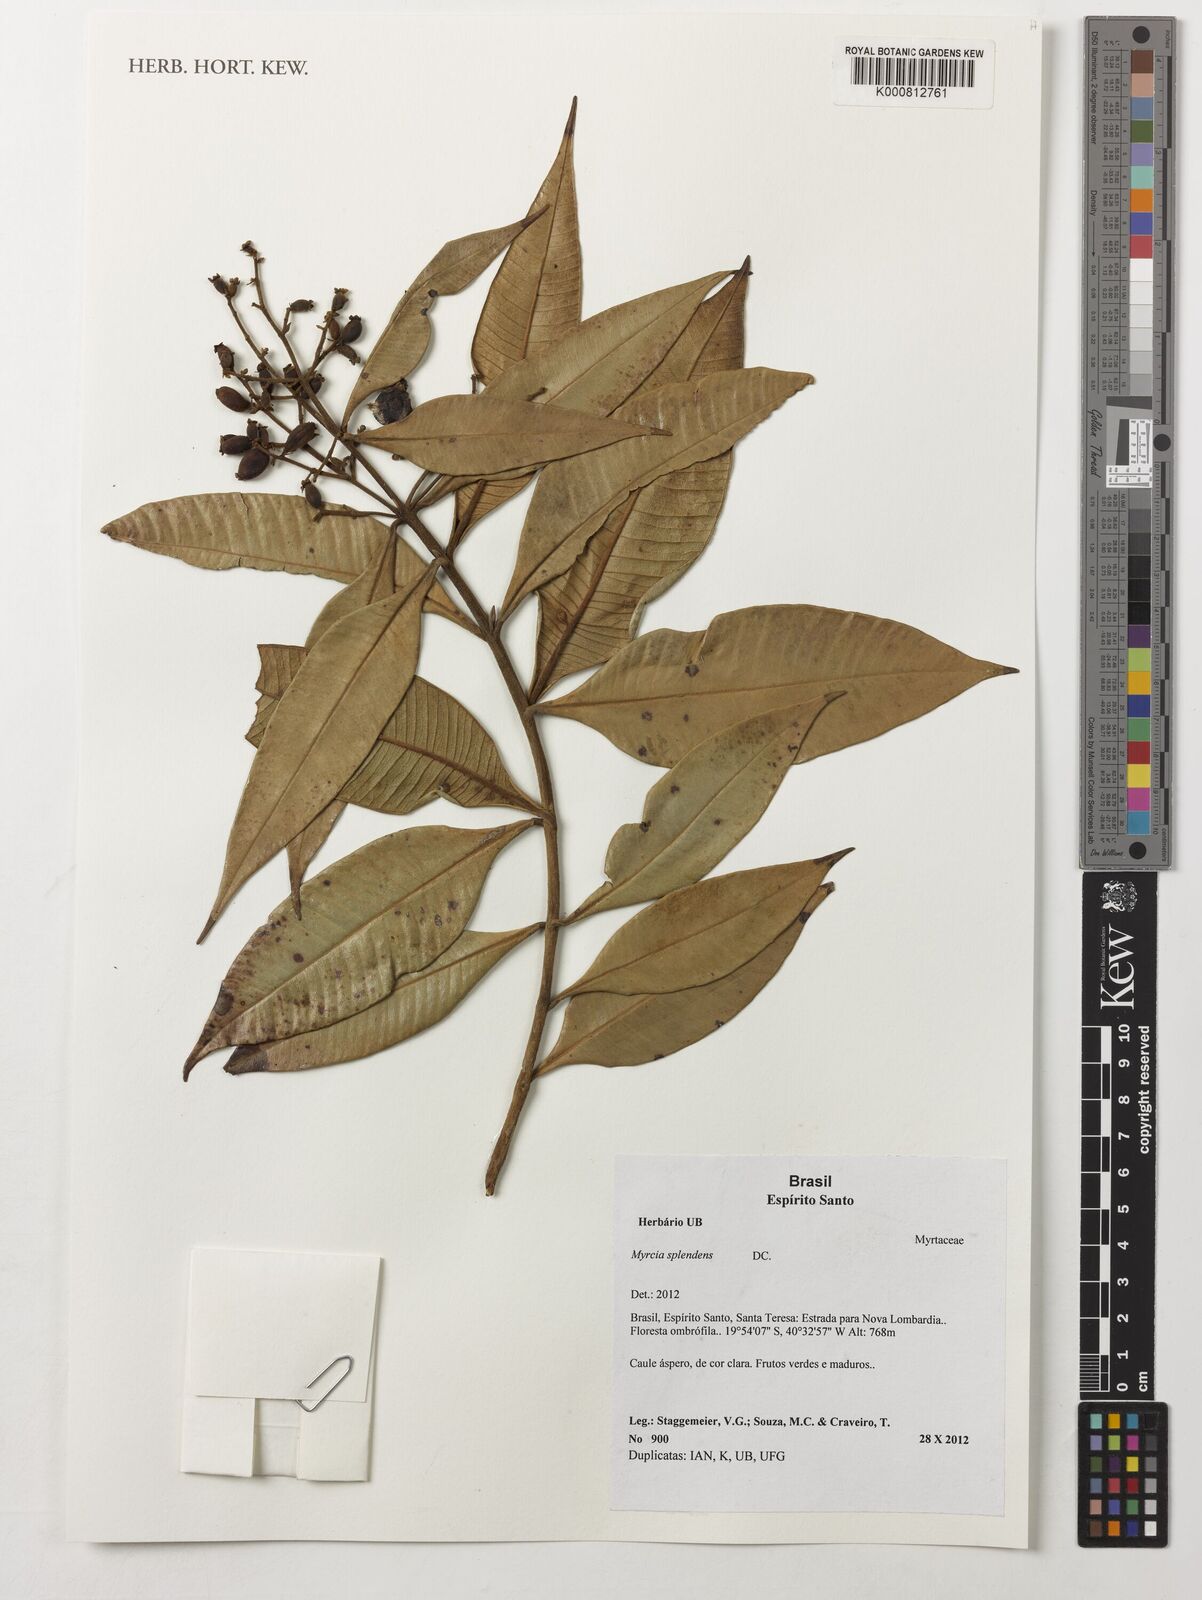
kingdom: Plantae
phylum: Tracheophyta
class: Magnoliopsida
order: Myrtales
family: Myrtaceae
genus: Myrcia
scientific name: Myrcia splendens
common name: Surinam cherry
